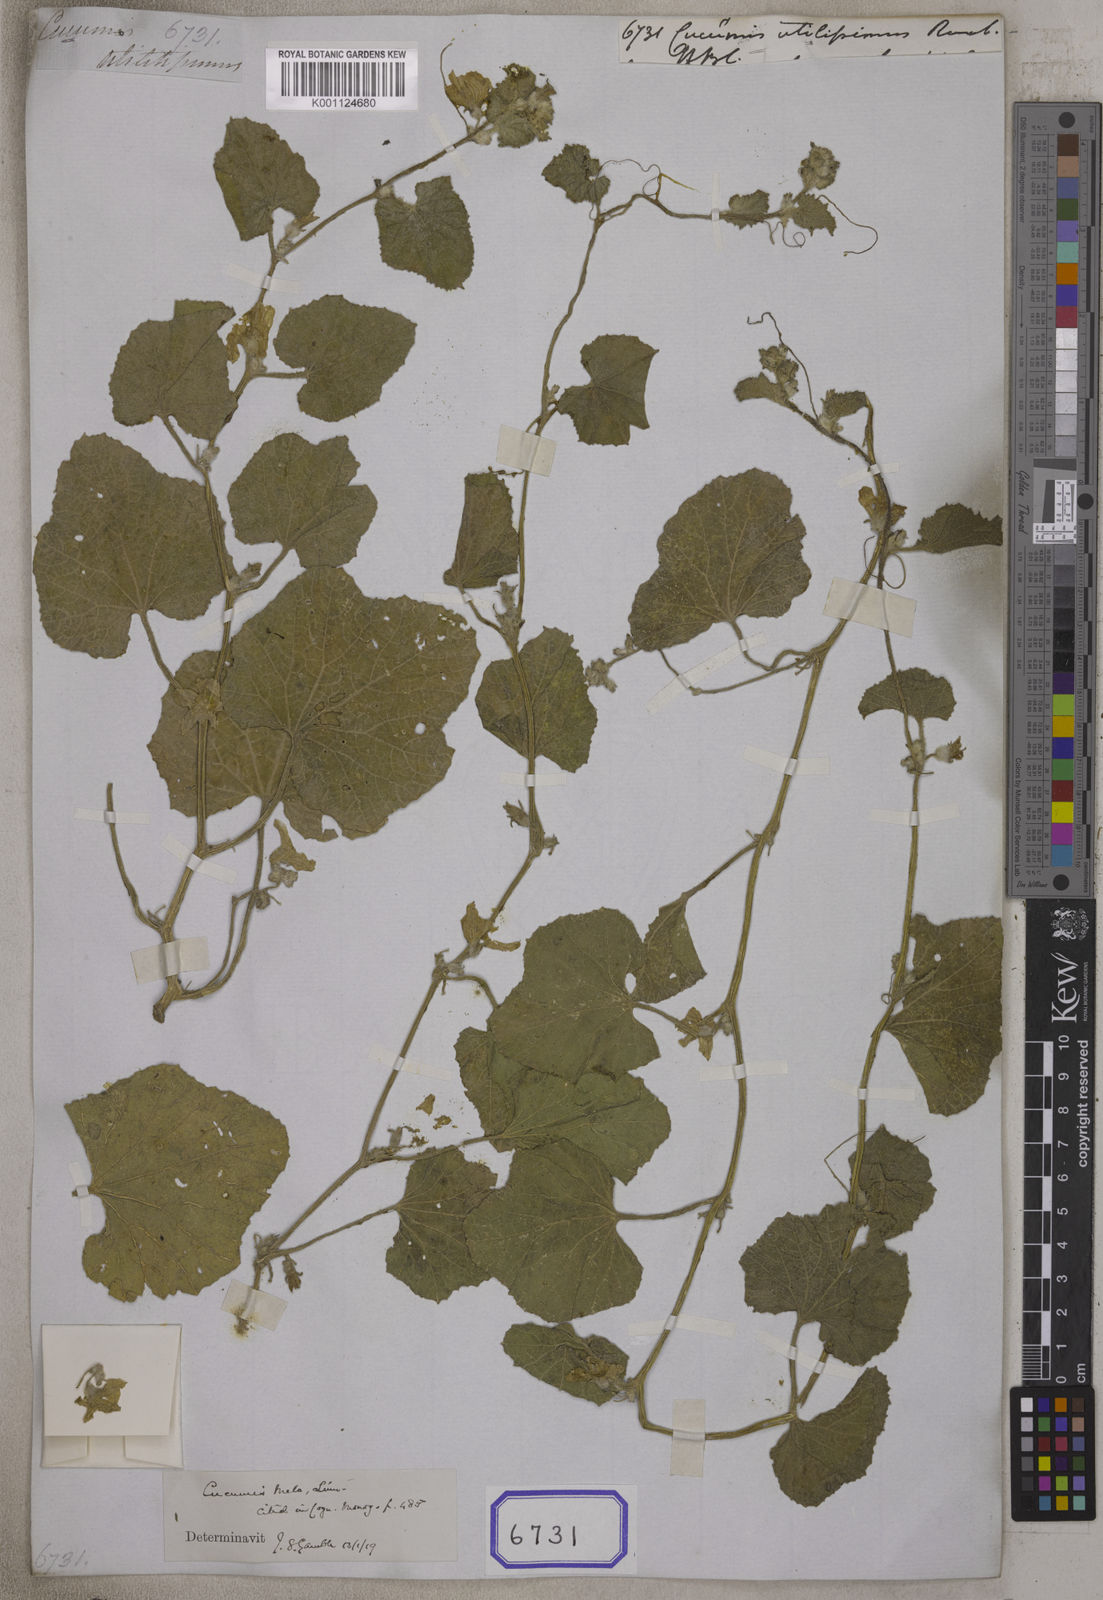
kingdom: Plantae
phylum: Tracheophyta
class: Magnoliopsida
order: Cucurbitales
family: Cucurbitaceae
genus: Cucumis
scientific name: Cucumis melo
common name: Melon
